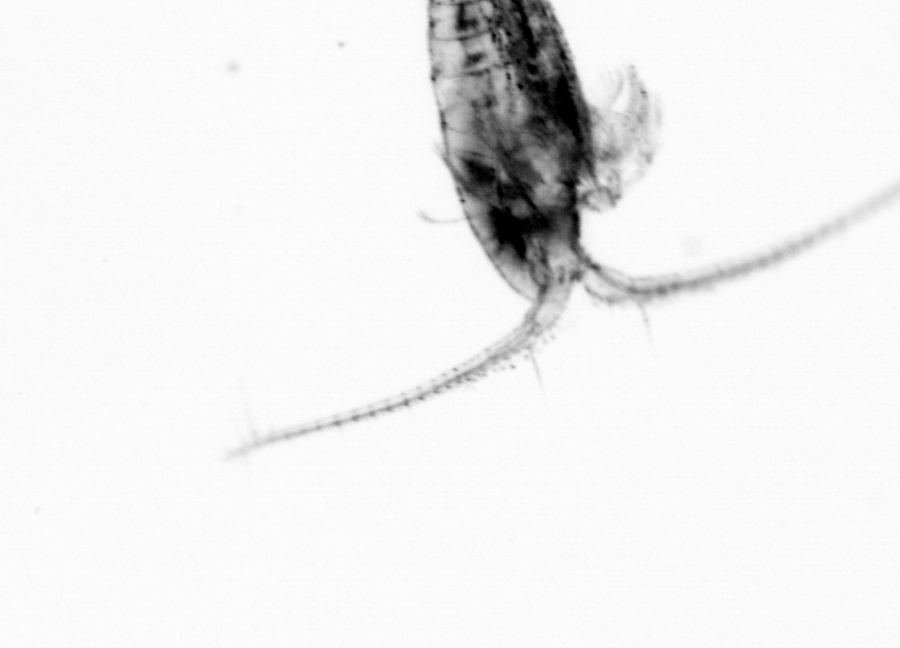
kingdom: Animalia
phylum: Arthropoda
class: Copepoda
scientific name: Copepoda
